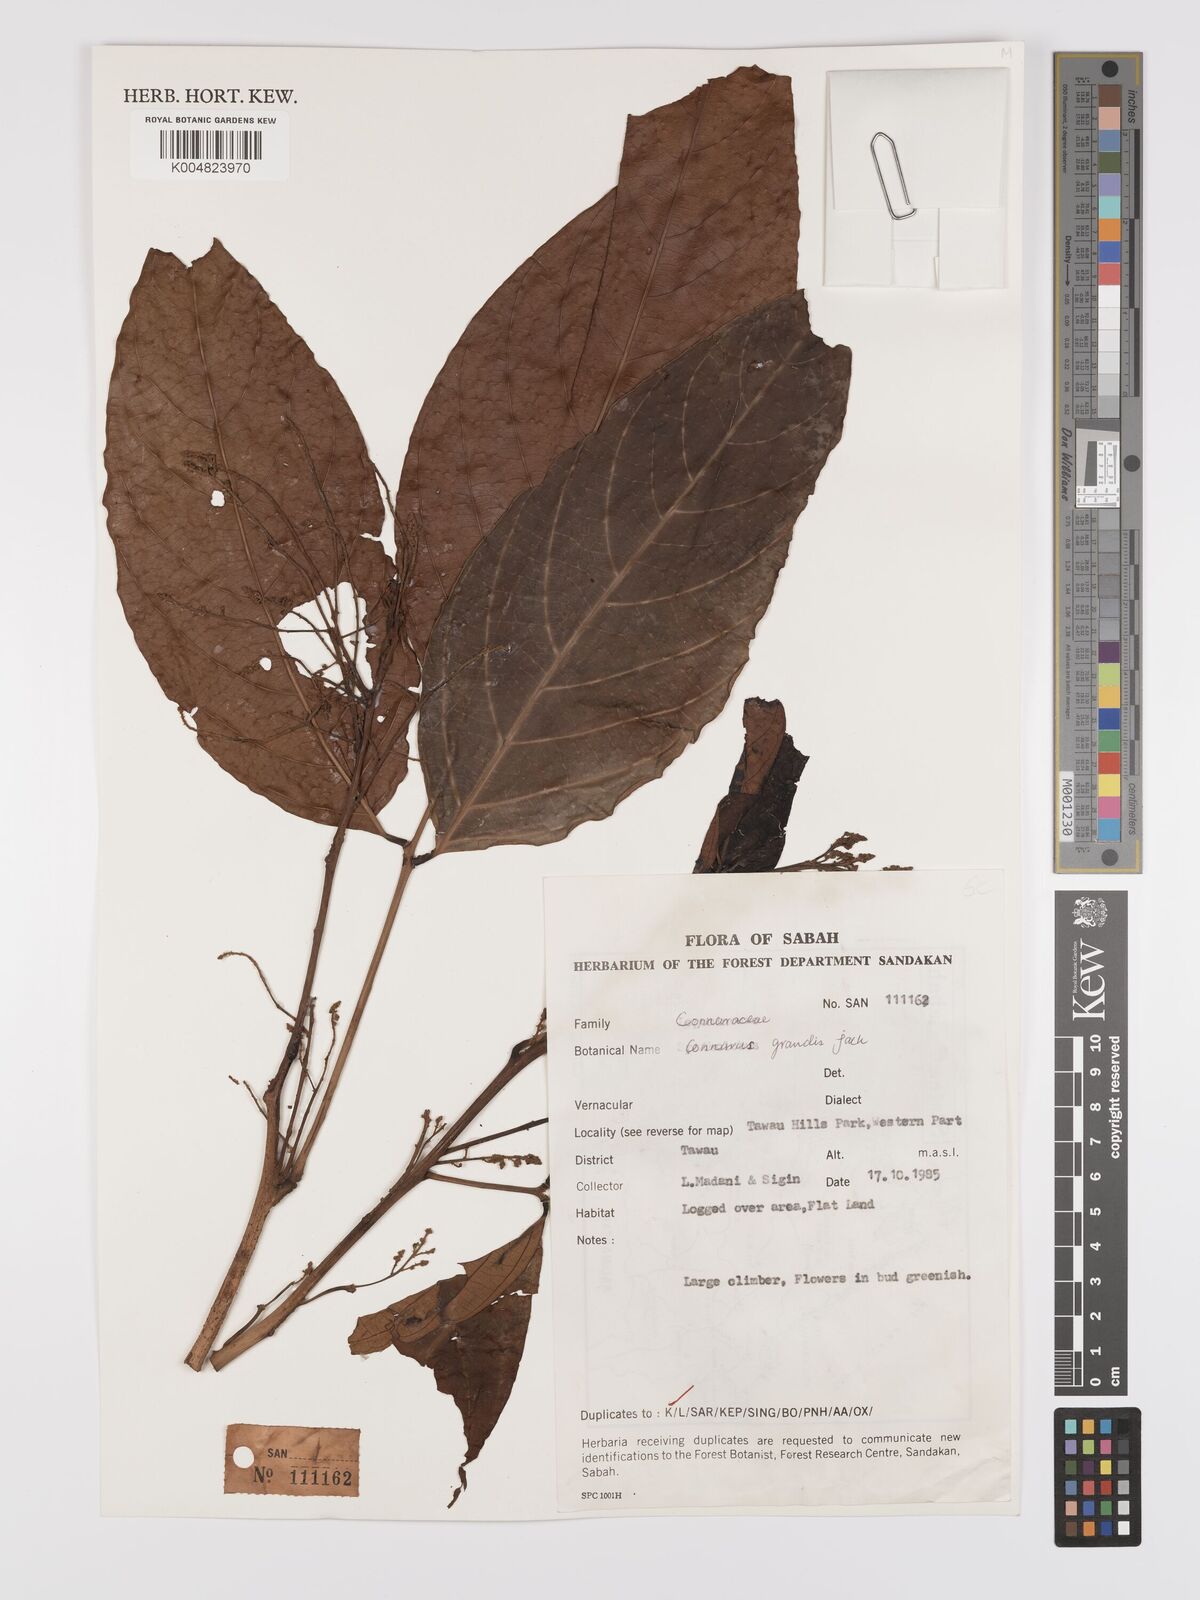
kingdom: Plantae
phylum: Tracheophyta
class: Magnoliopsida
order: Oxalidales
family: Connaraceae
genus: Connarus
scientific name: Connarus grandis
